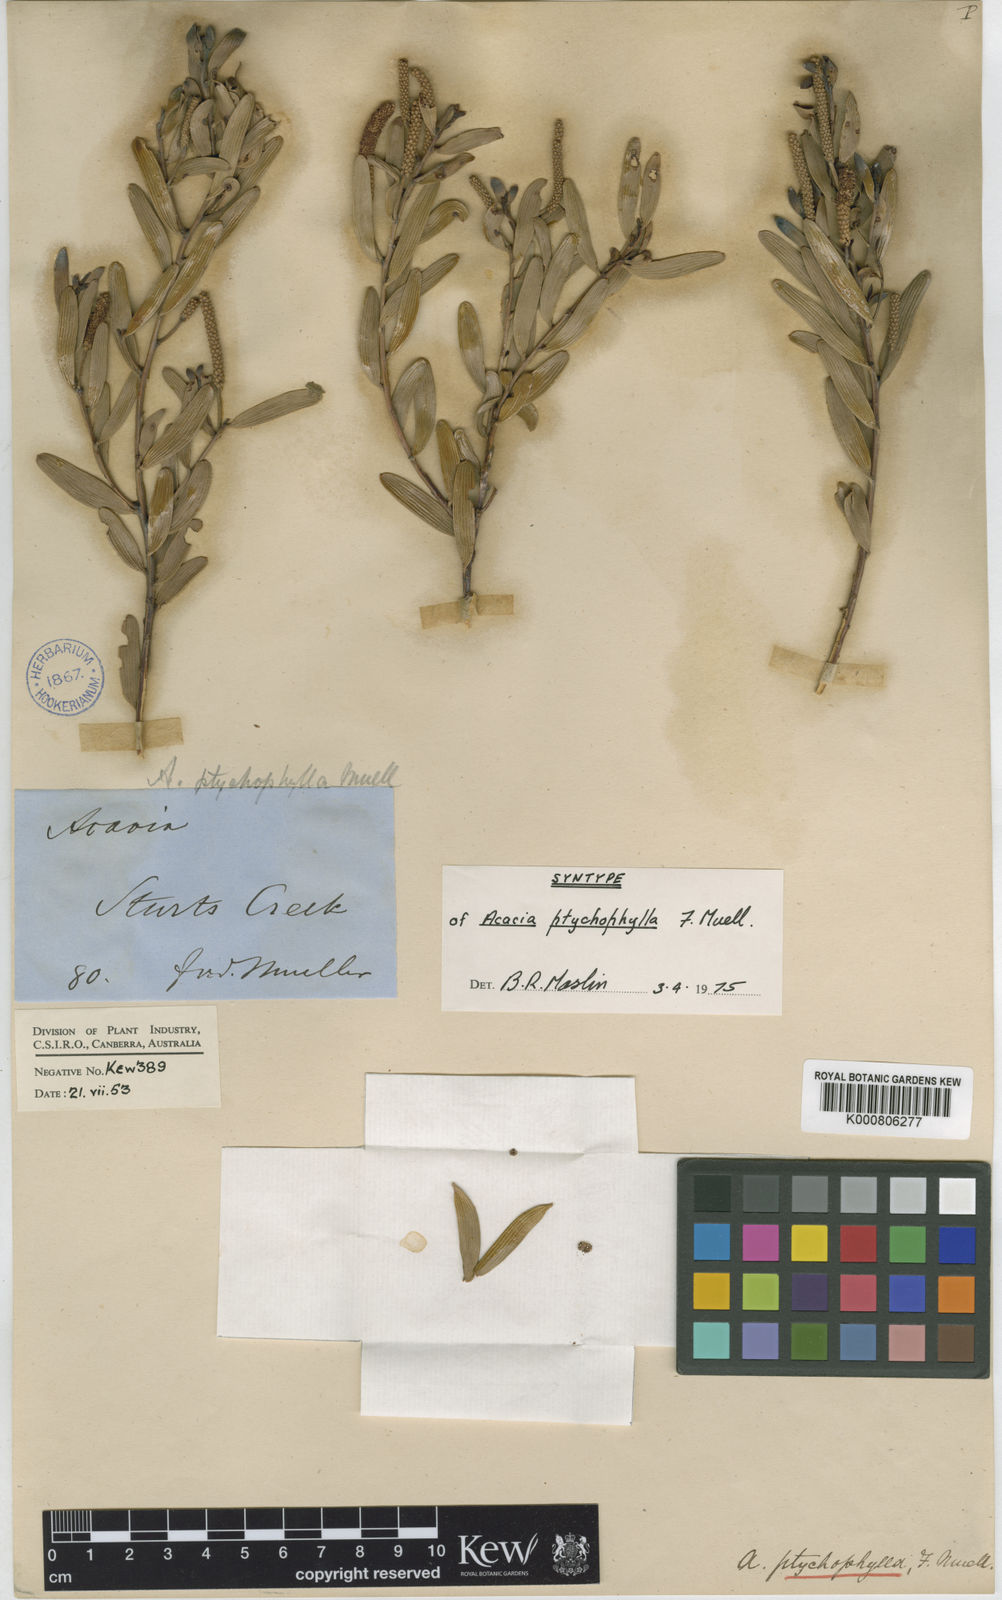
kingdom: Plantae
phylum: Tracheophyta
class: Magnoliopsida
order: Fabales
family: Fabaceae
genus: Acacia
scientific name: Acacia ptychophylla
